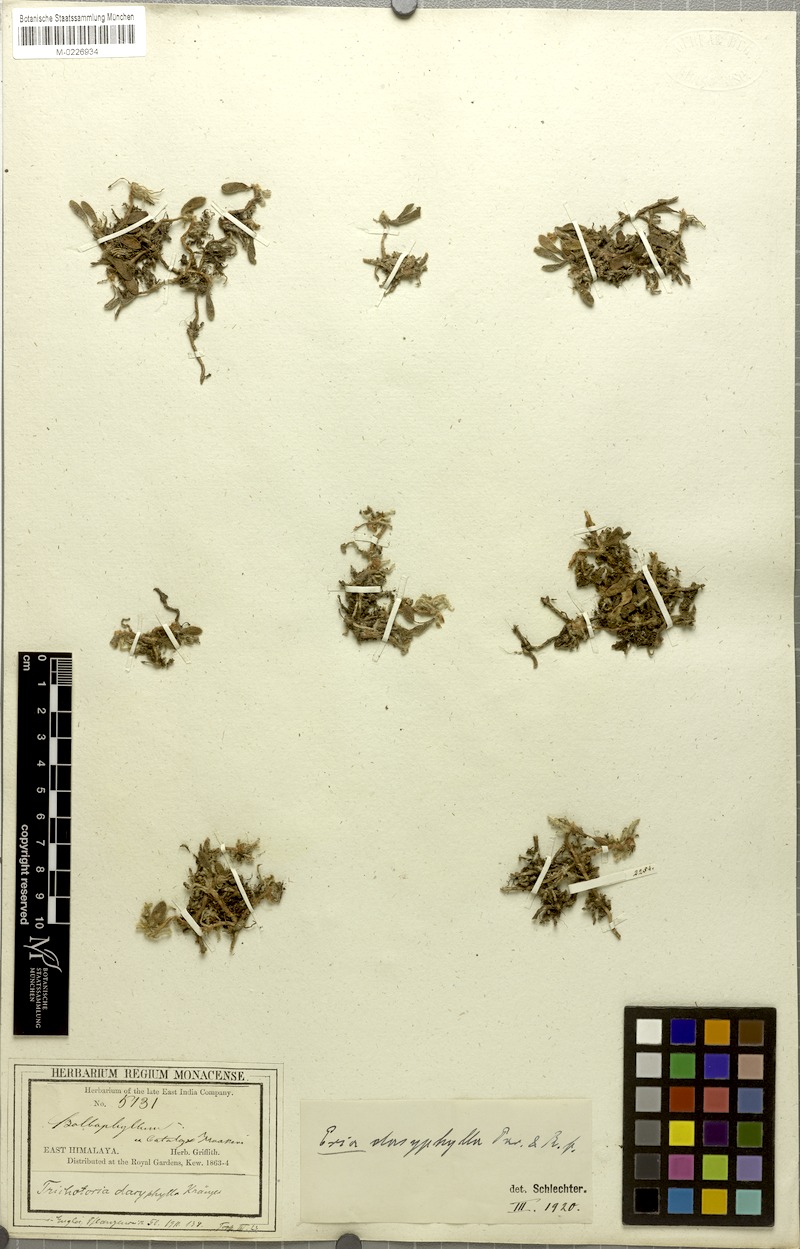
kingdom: Plantae
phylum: Tracheophyta
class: Liliopsida
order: Asparagales
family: Orchidaceae
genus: Trichotosia
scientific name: Trichotosia dasyphylla
